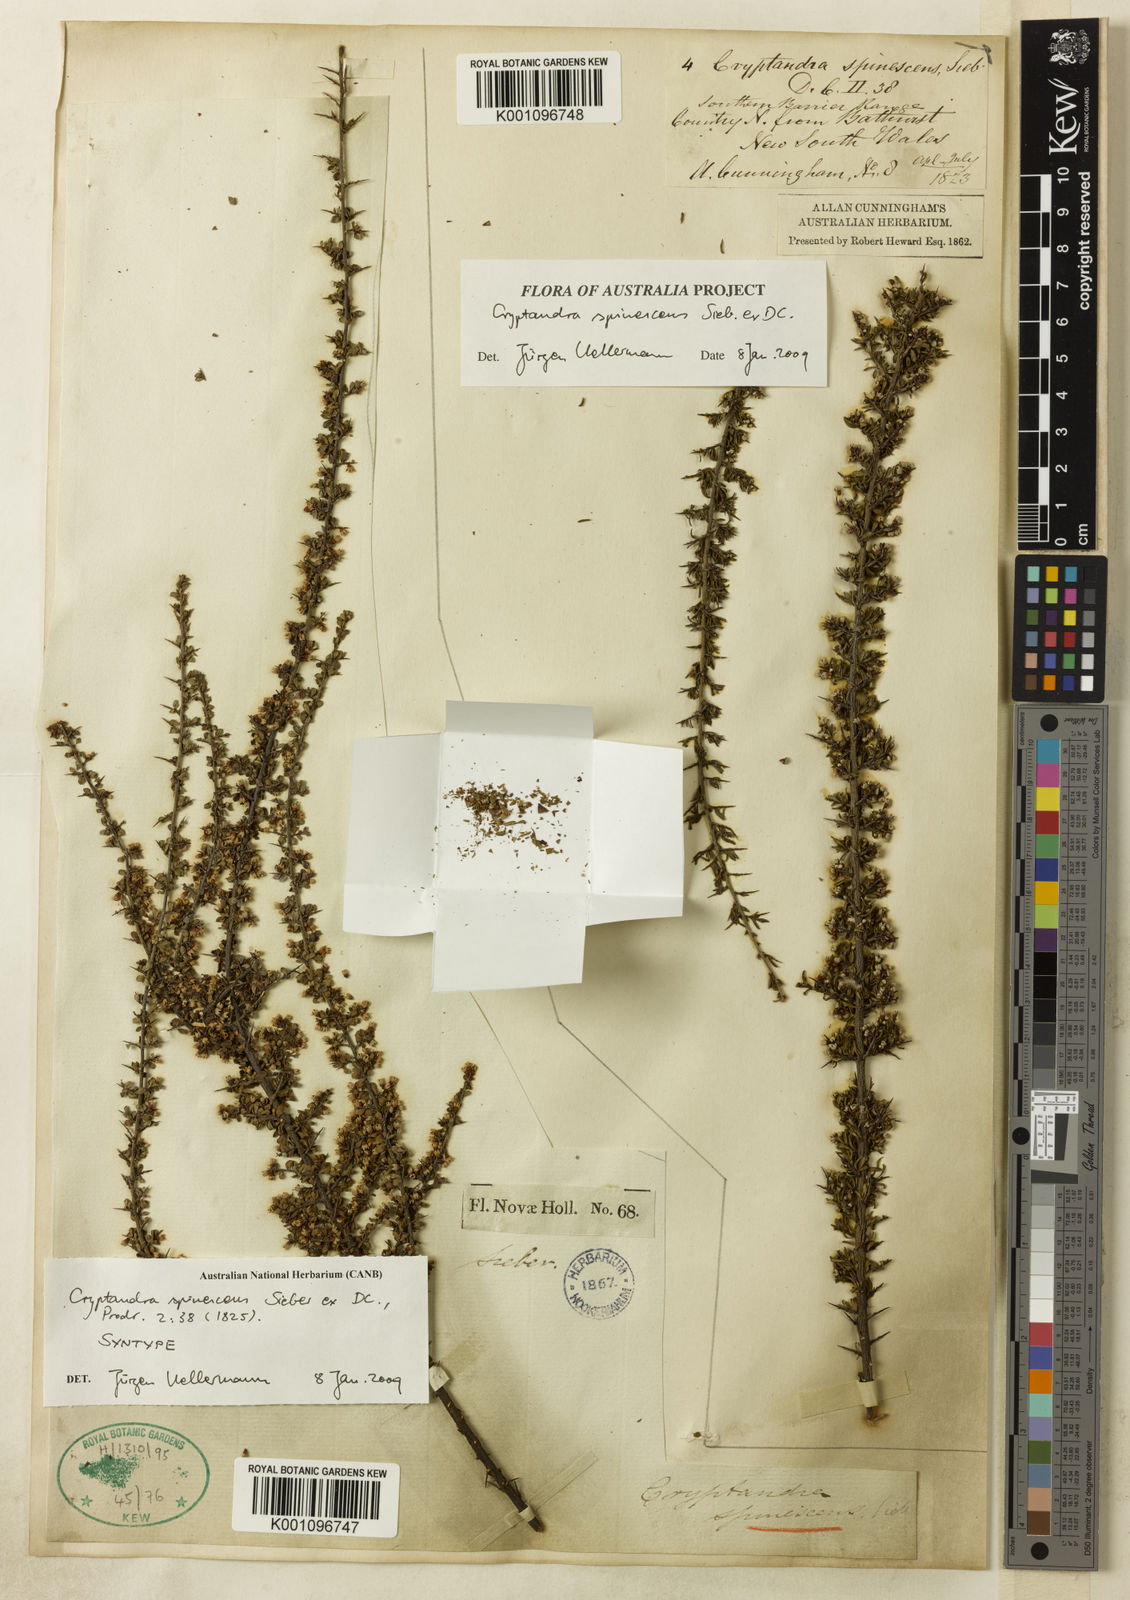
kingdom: Plantae
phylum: Tracheophyta
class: Magnoliopsida
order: Rosales
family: Rhamnaceae
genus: Cryptandra
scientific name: Cryptandra spinescens
